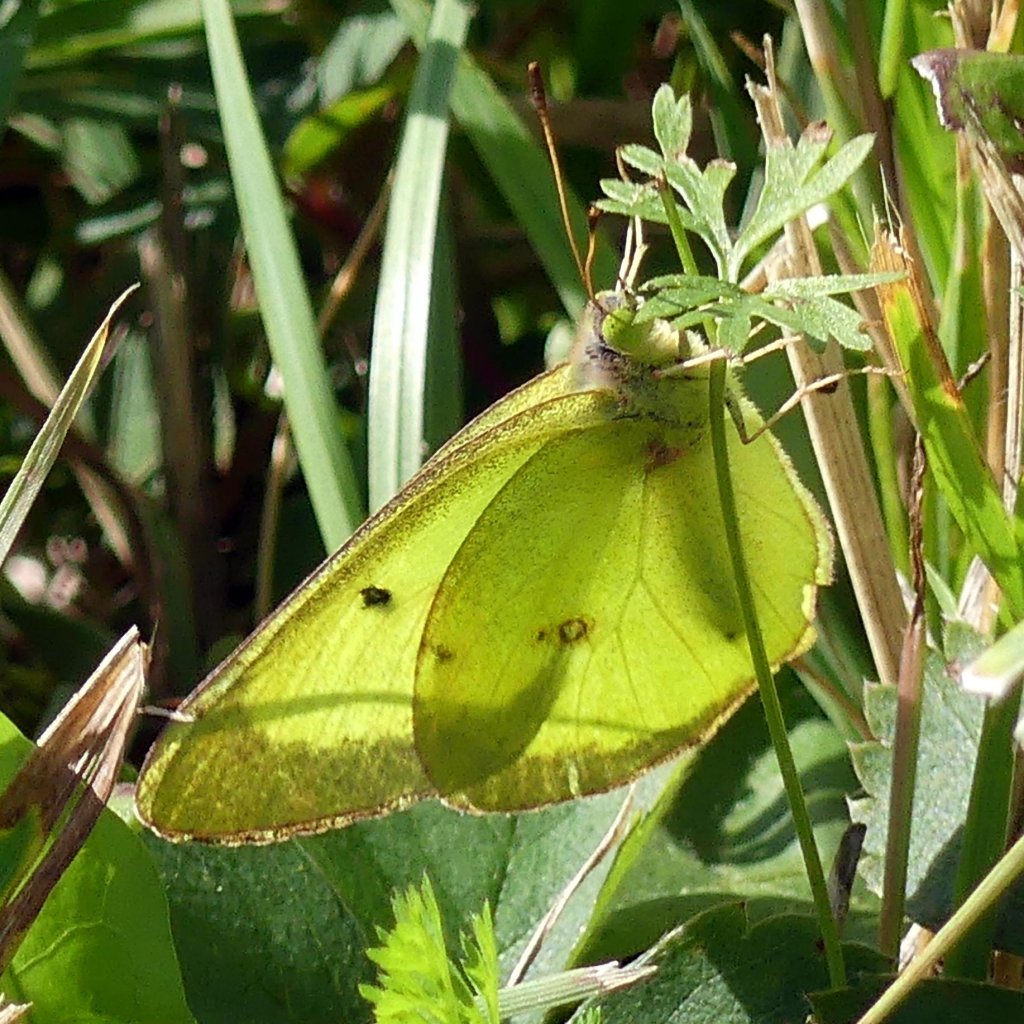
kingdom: Animalia
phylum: Arthropoda
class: Insecta
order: Lepidoptera
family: Pieridae
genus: Colias
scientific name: Colias philodice
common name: Clouded Sulphur
